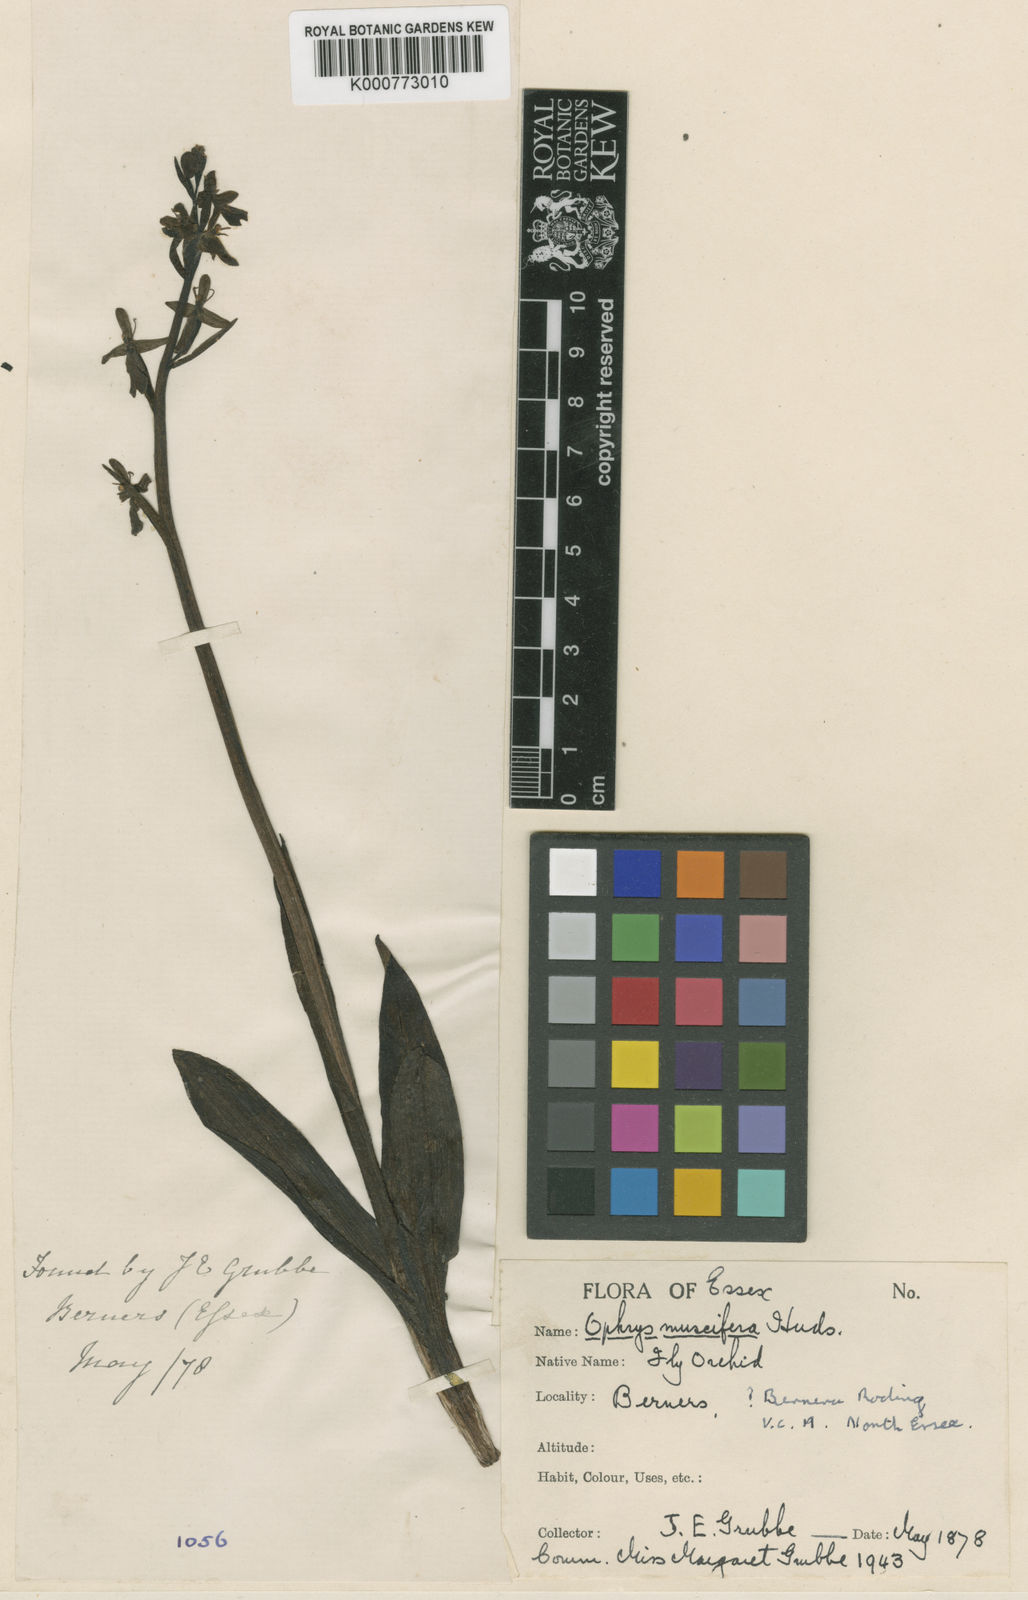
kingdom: Plantae
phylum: Tracheophyta
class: Liliopsida
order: Asparagales
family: Orchidaceae
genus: Ophrys
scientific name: Ophrys insectifera
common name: Fly orchid
